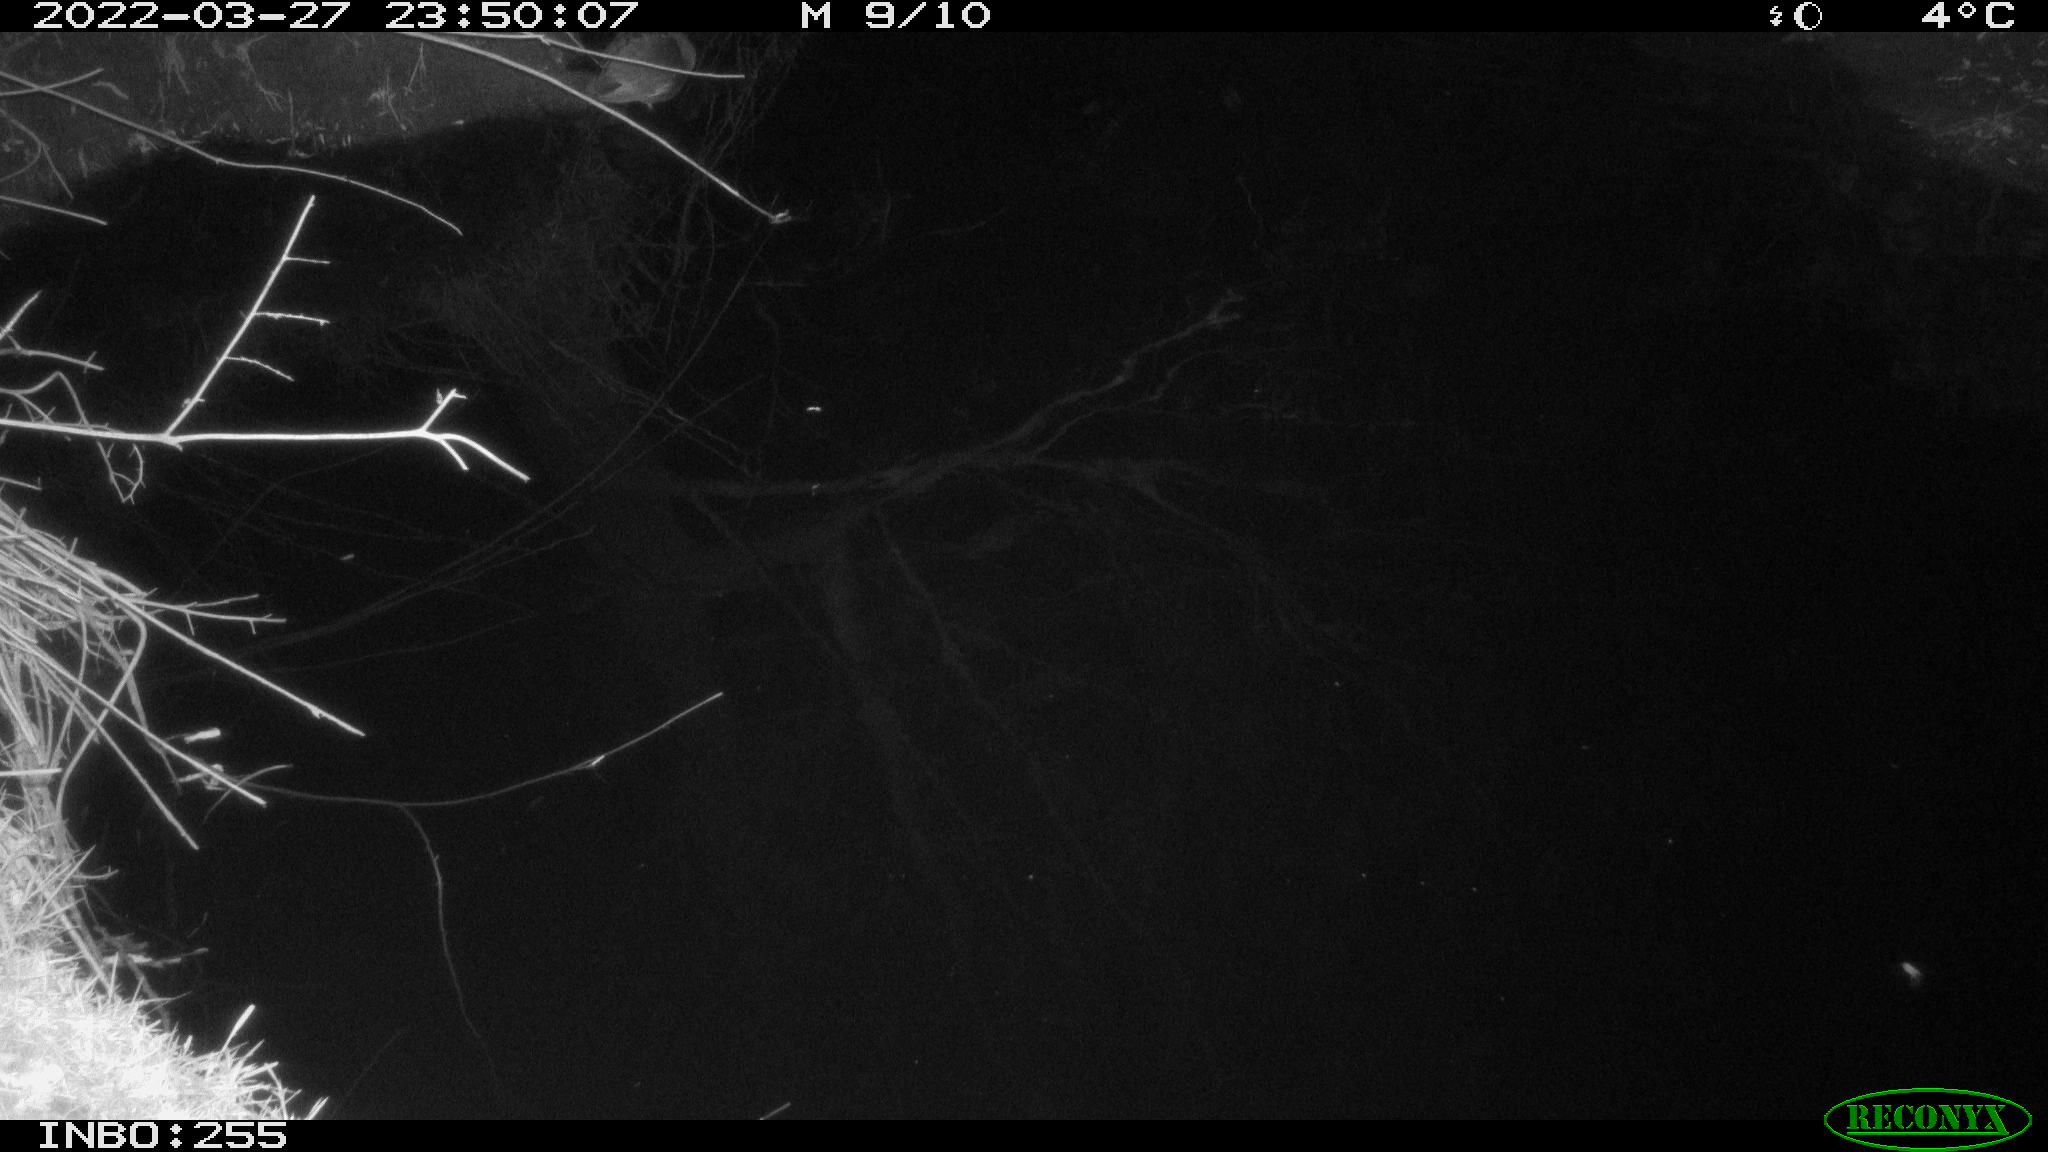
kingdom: Animalia
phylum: Chordata
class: Aves
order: Anseriformes
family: Anatidae
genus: Anas
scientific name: Anas platyrhynchos
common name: Mallard
